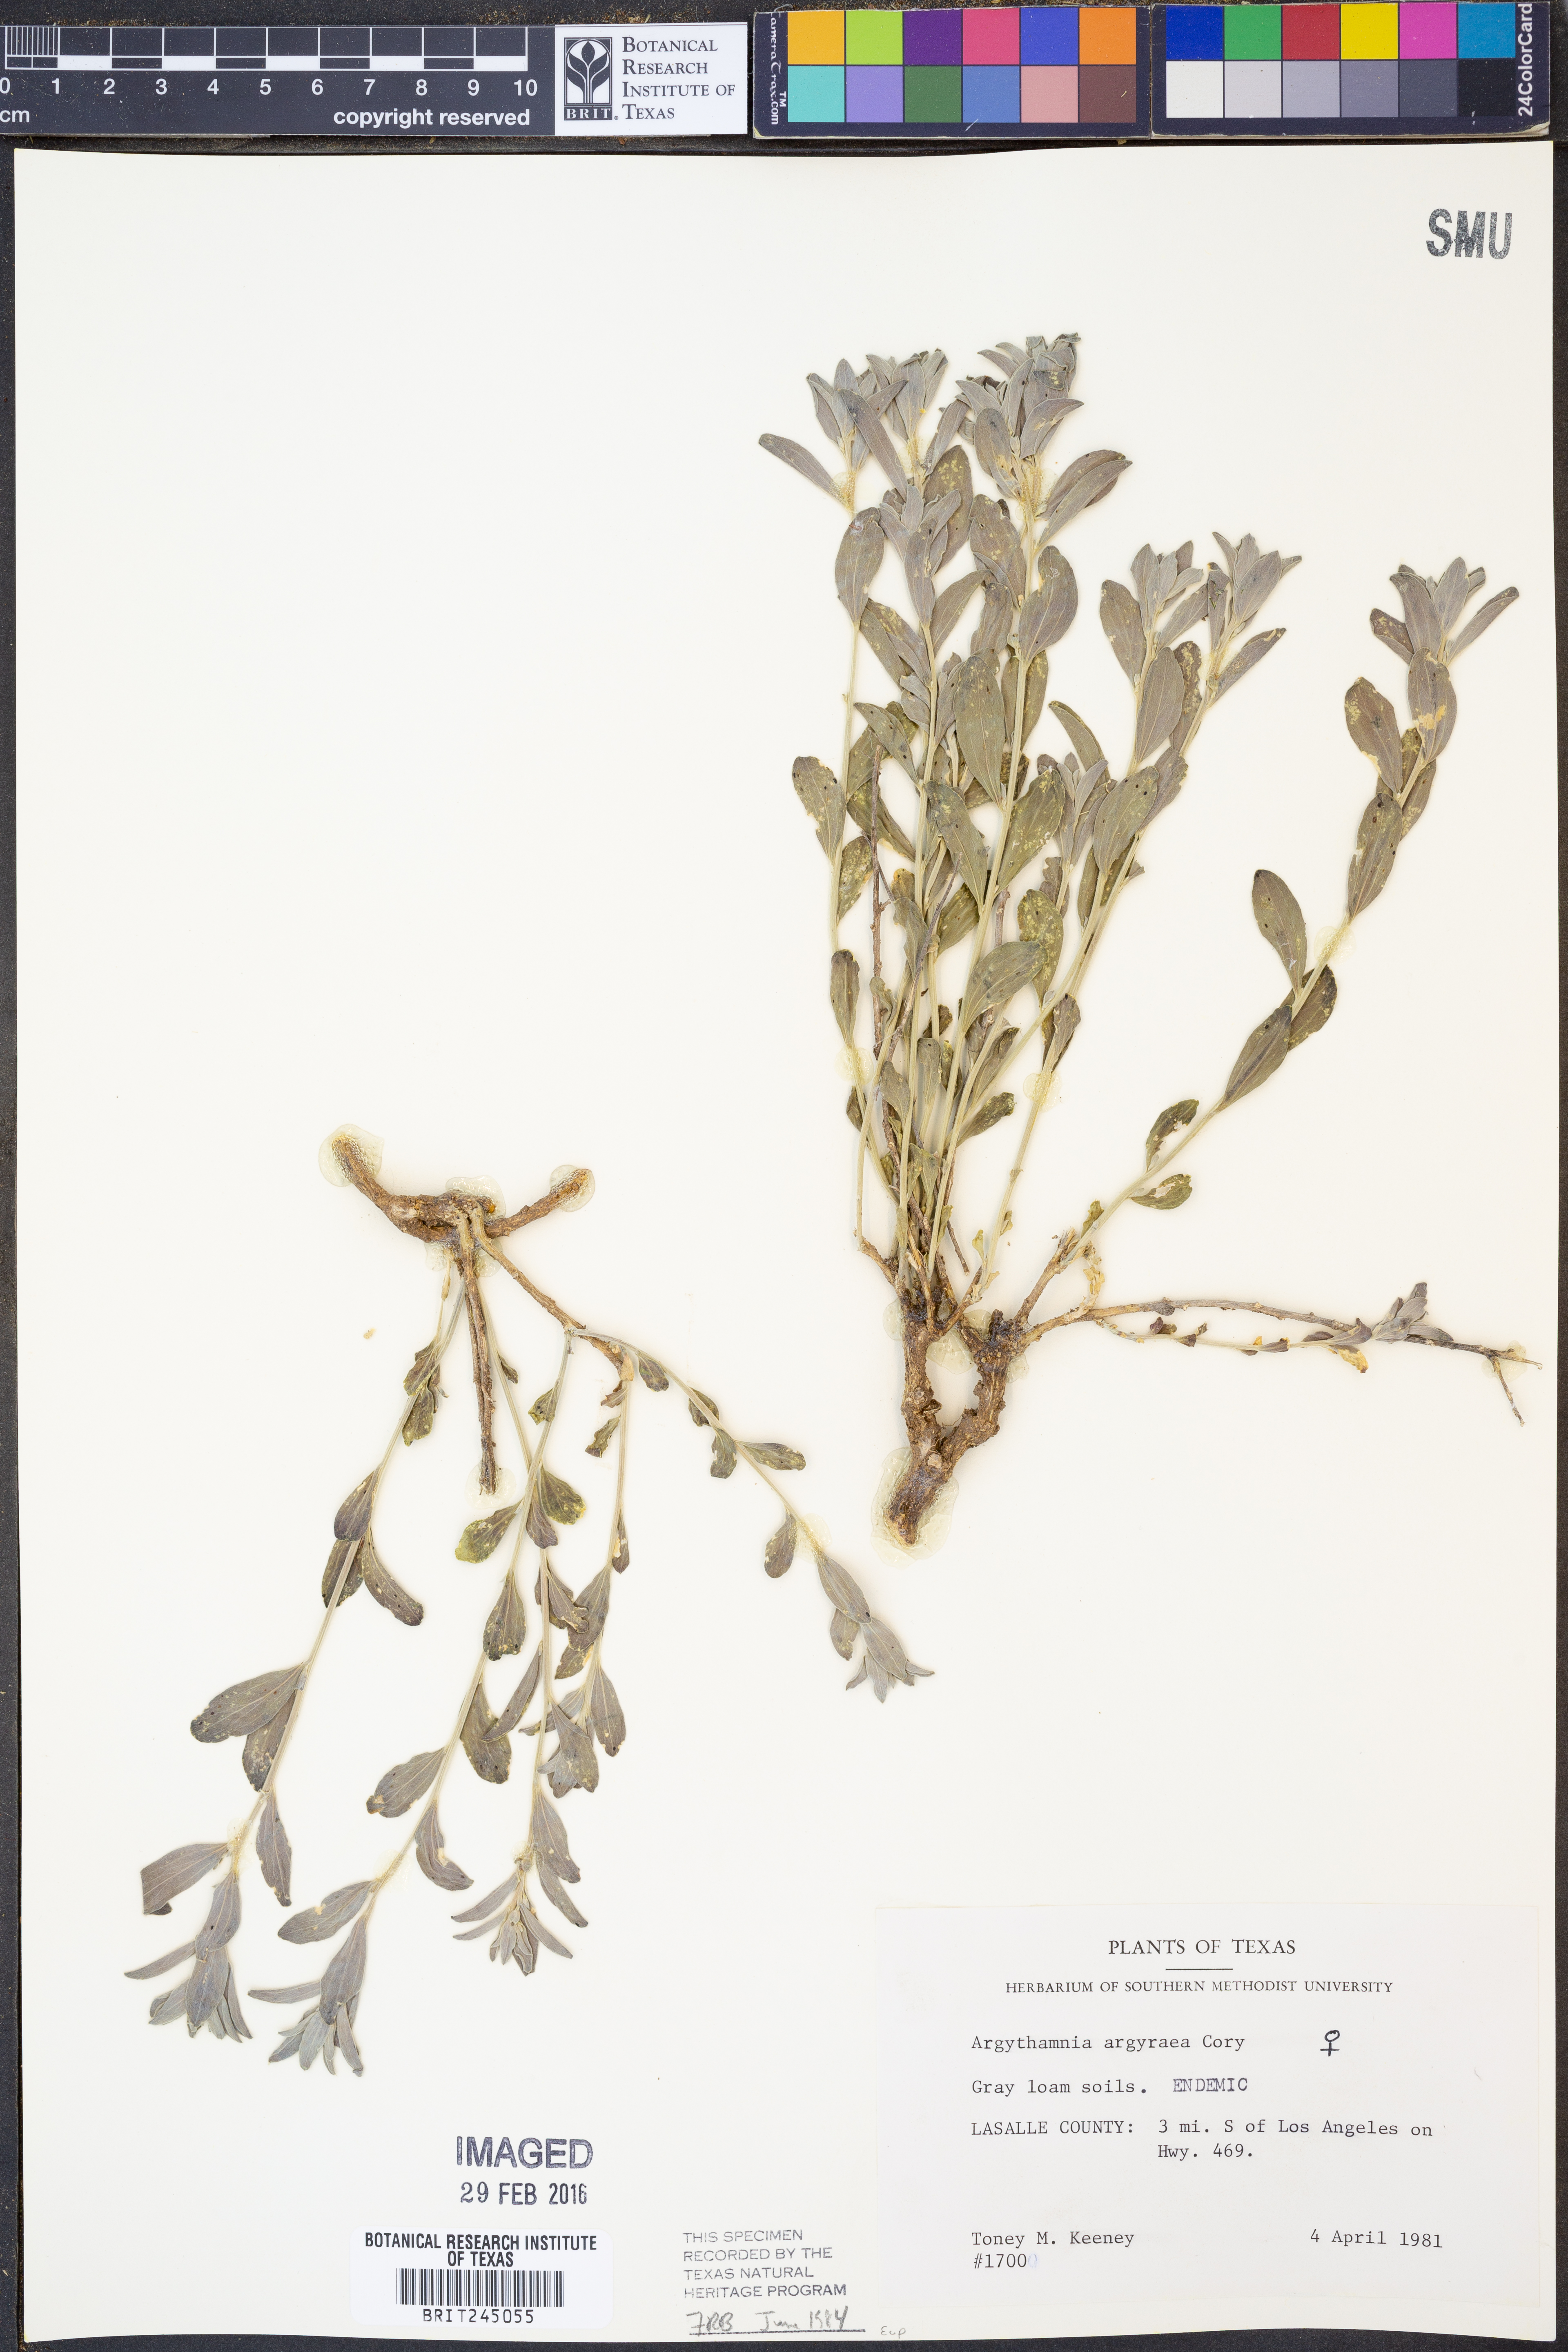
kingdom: Plantae
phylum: Tracheophyta
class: Magnoliopsida
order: Malpighiales
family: Euphorbiaceae
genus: Argythamnia
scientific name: Argythamnia argyraea
